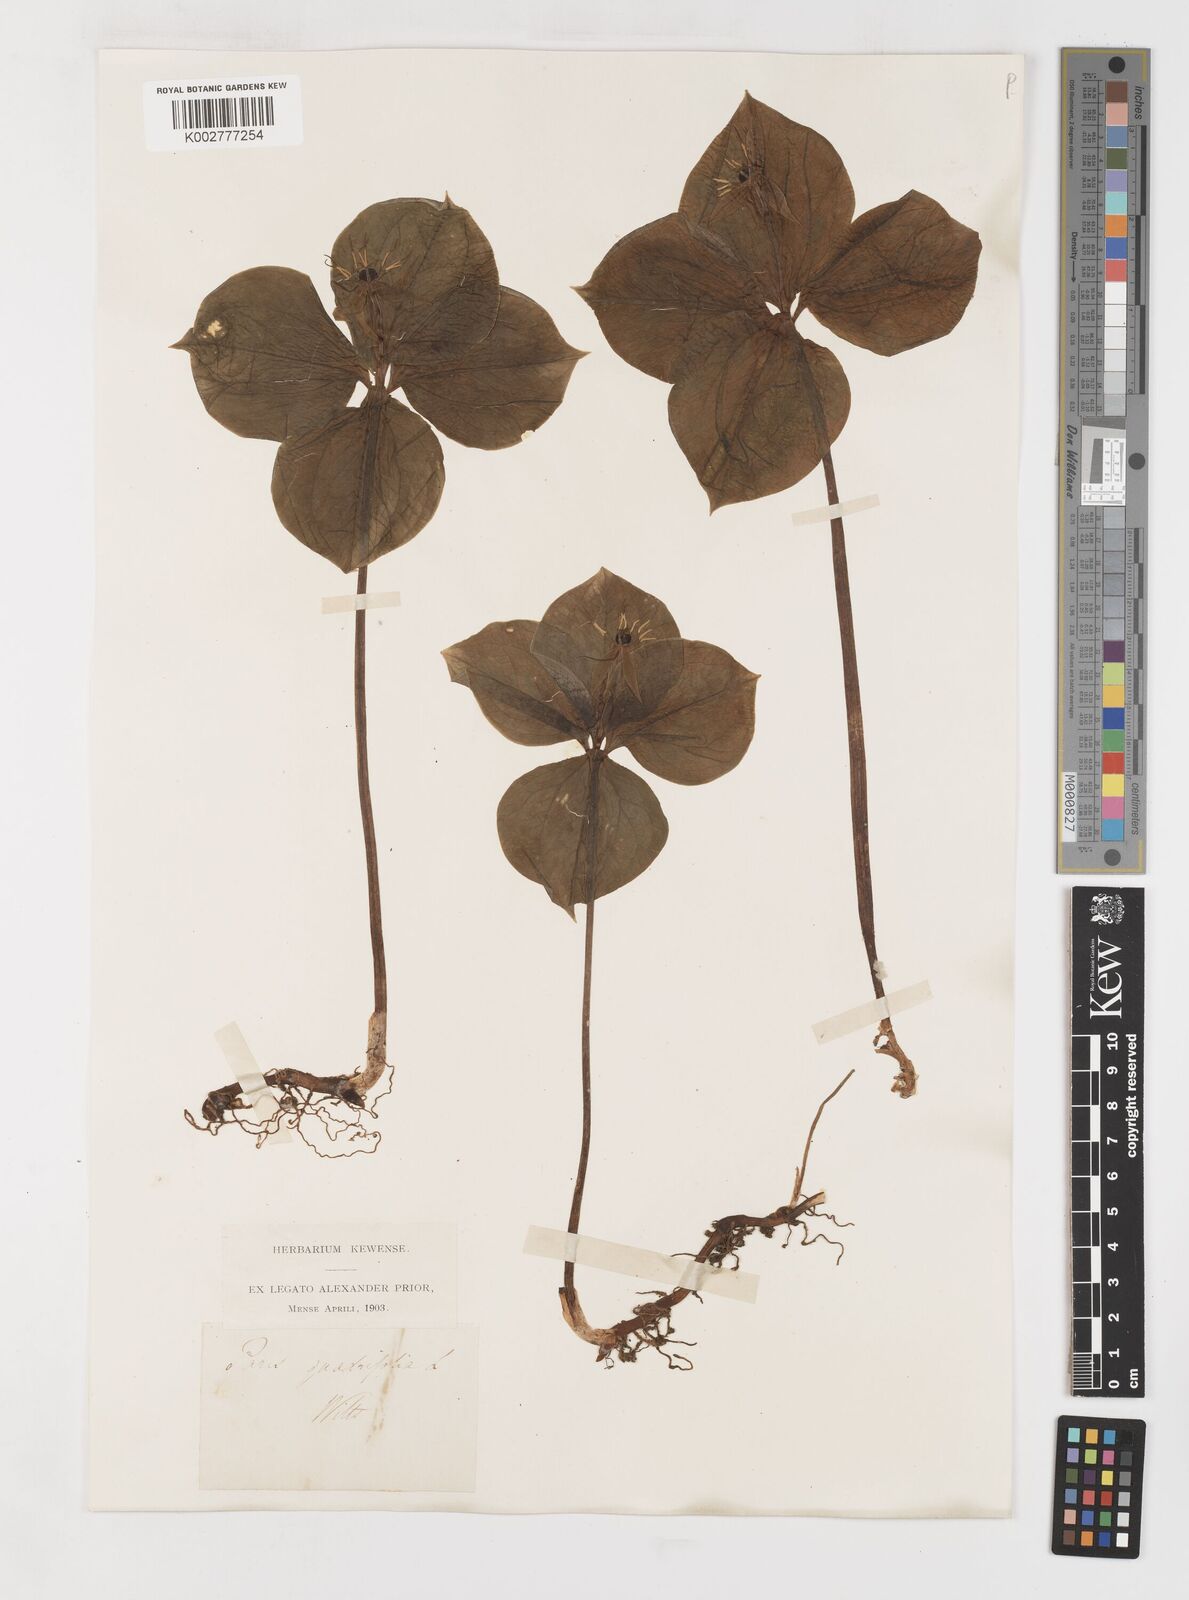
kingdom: Plantae
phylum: Tracheophyta
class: Liliopsida
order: Liliales
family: Melanthiaceae
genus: Paris
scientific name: Paris
